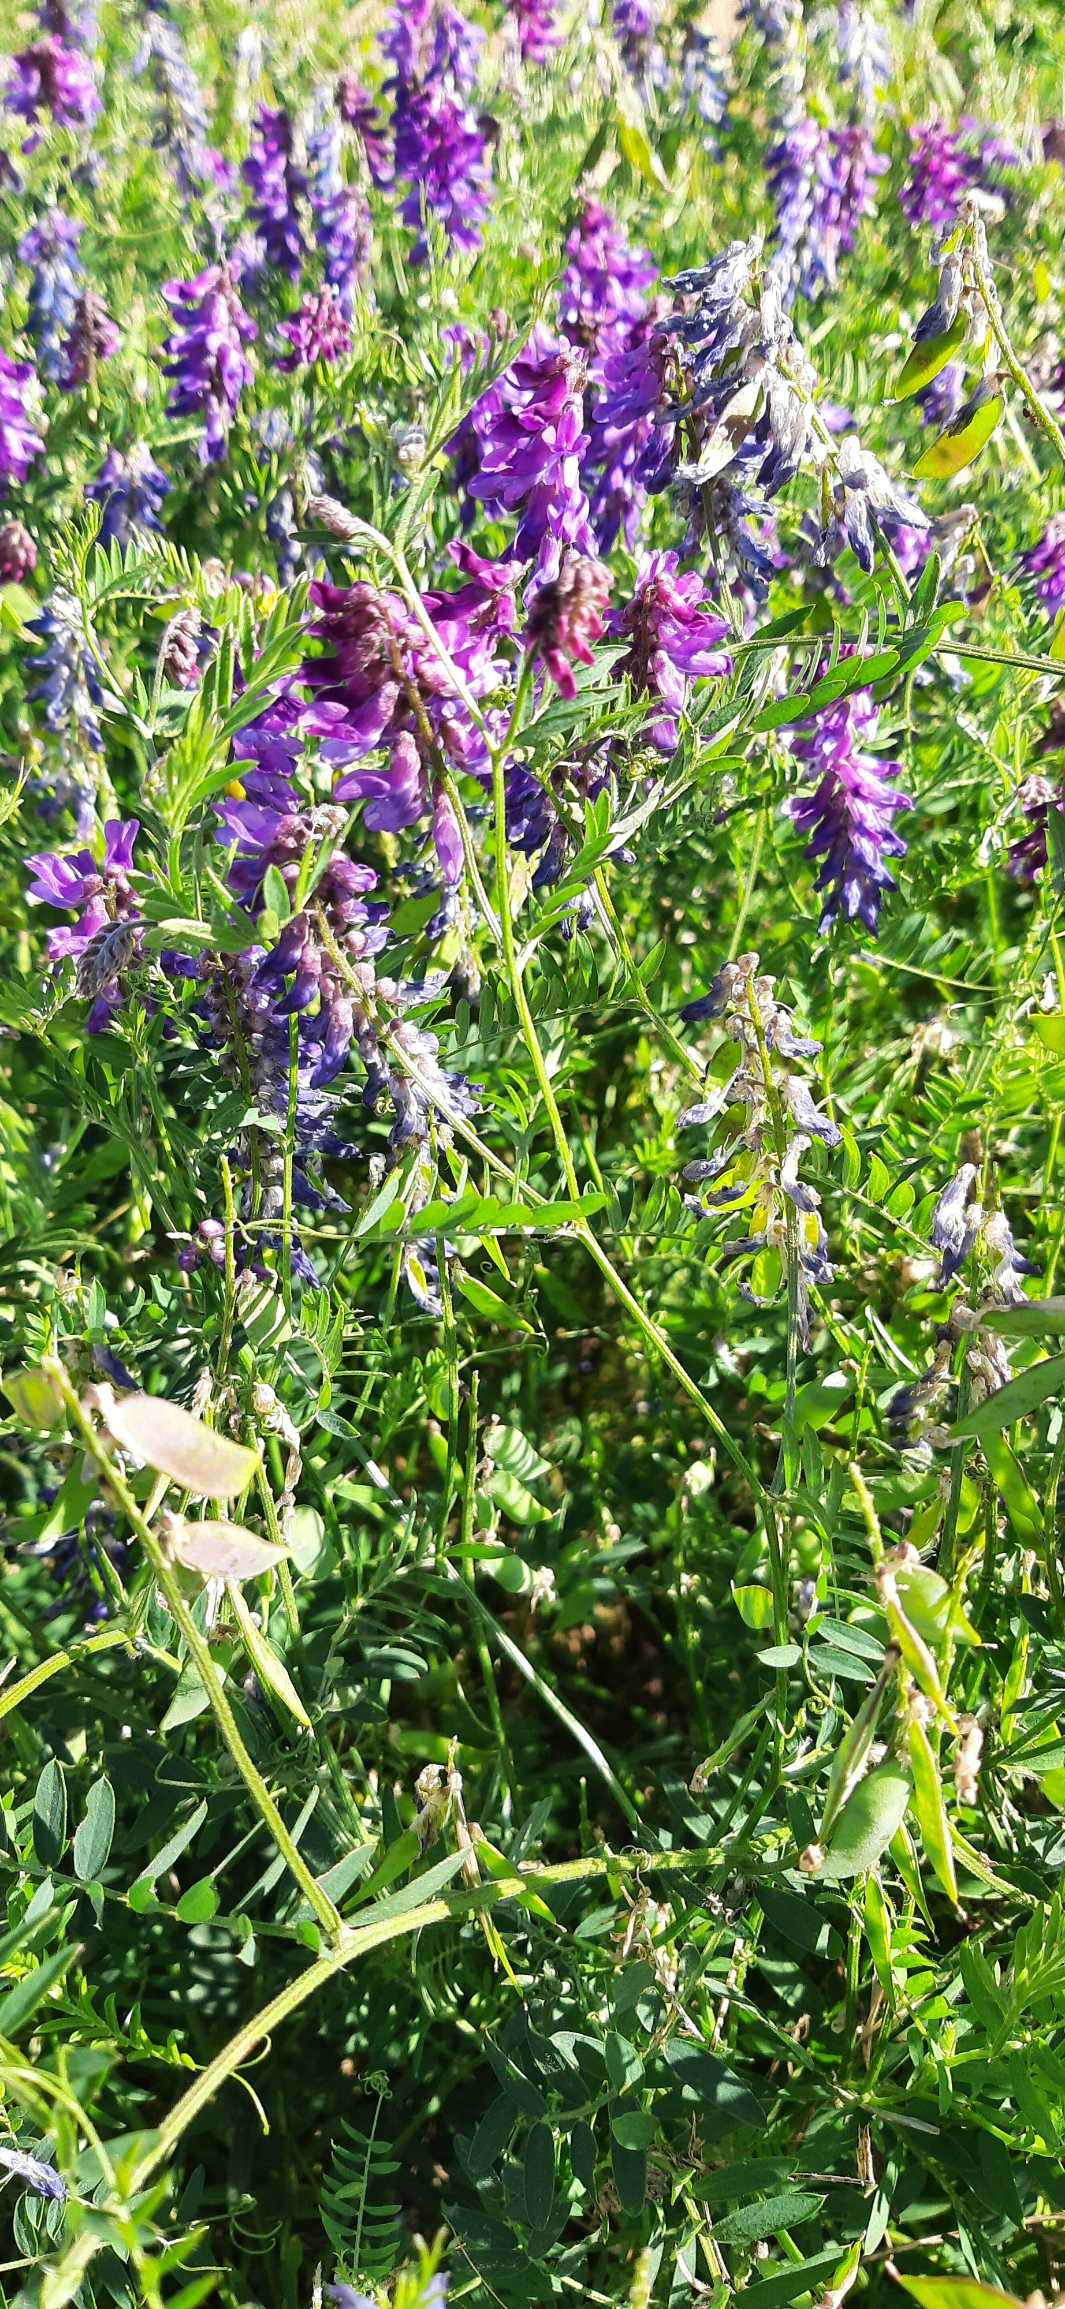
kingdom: Plantae
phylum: Tracheophyta
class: Magnoliopsida
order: Fabales
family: Fabaceae
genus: Vicia
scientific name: Vicia cracca
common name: Muse-vikke
